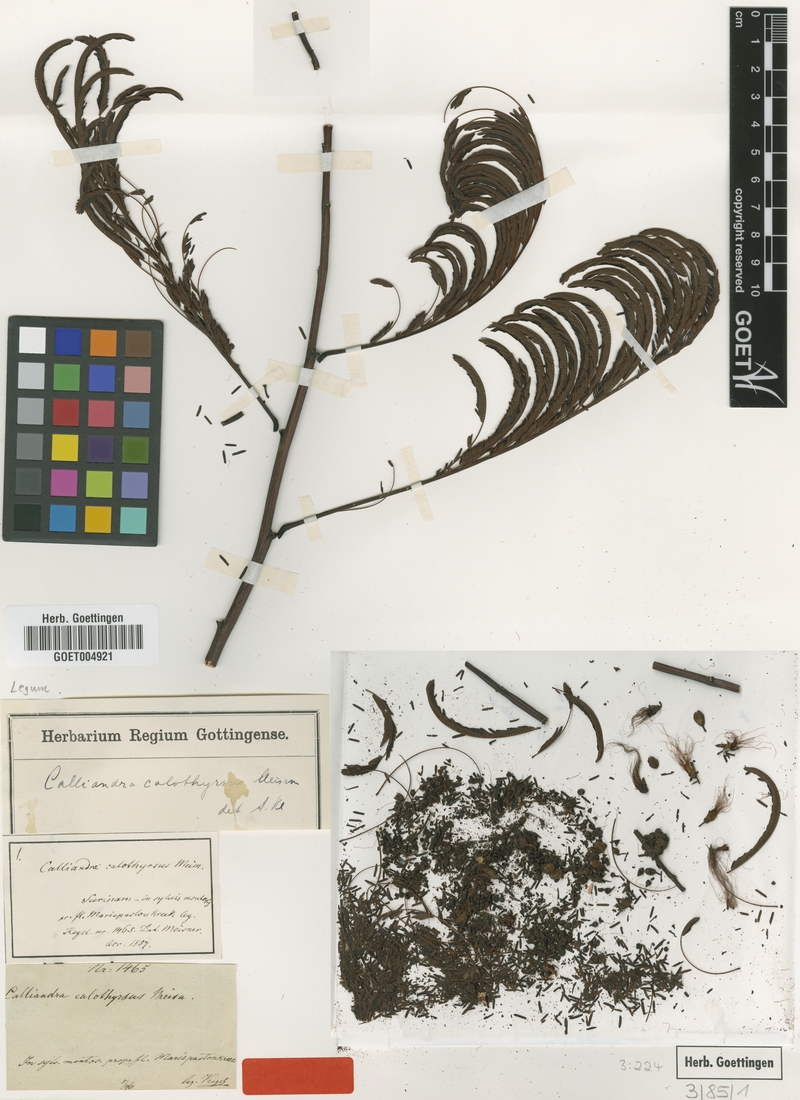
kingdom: Plantae
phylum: Tracheophyta
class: Magnoliopsida
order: Fabales
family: Fabaceae
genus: Calliandra
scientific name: Calliandra houstoniana
